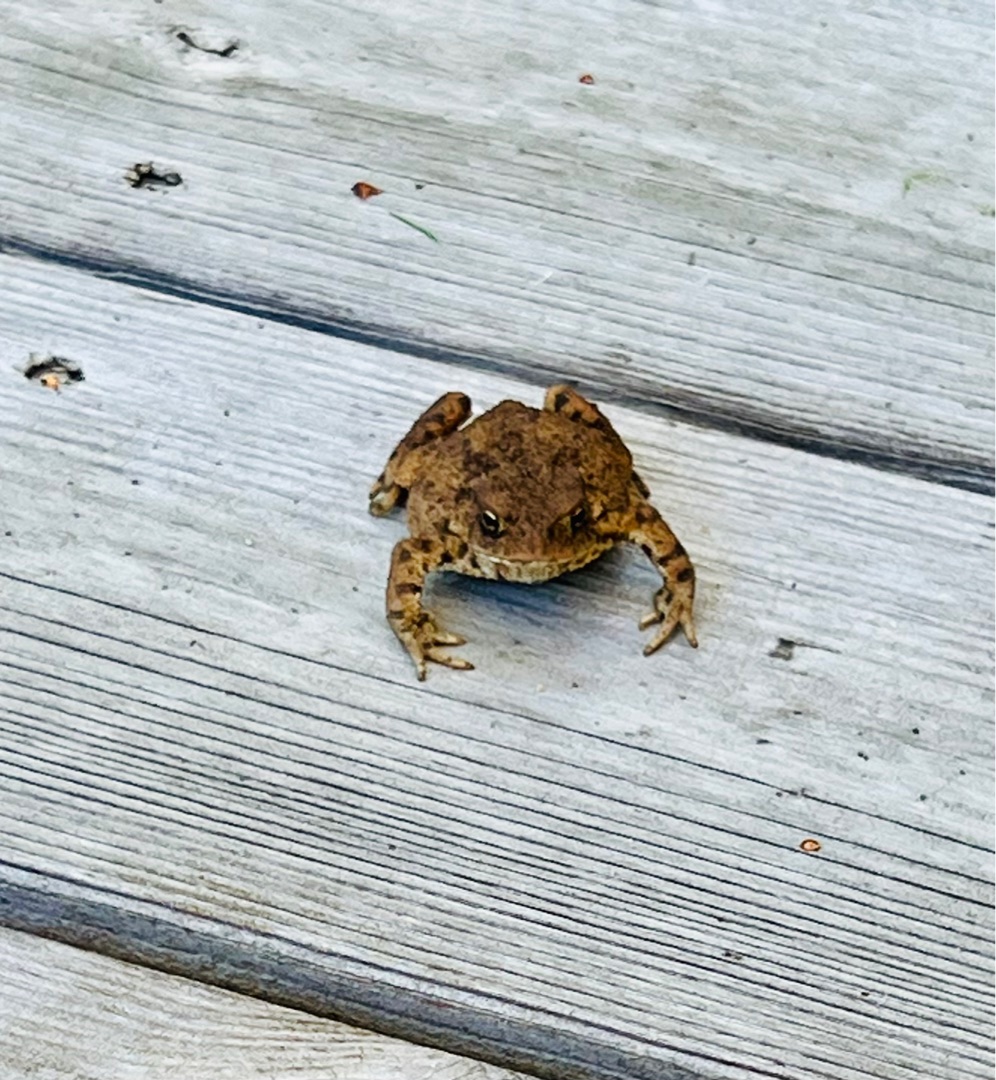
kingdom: Animalia
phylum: Chordata
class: Amphibia
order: Anura
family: Bufonidae
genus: Bufo
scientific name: Bufo bufo
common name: Skrubtudse
